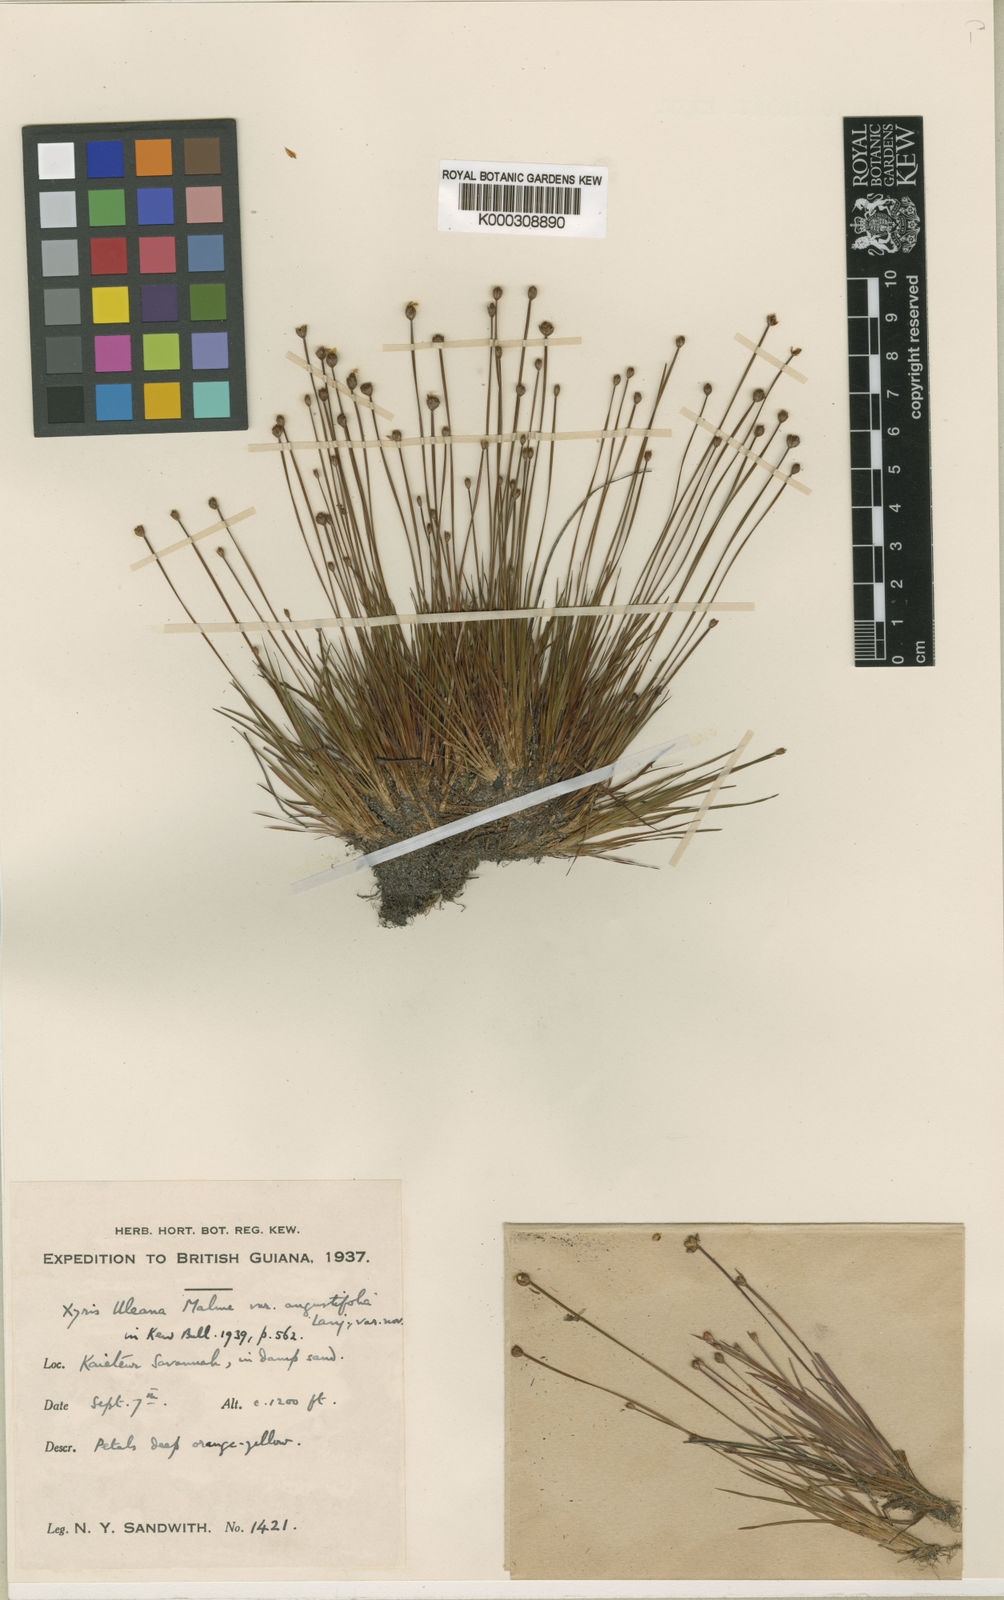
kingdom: Plantae
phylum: Tracheophyta
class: Liliopsida
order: Poales
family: Xyridaceae
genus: Xyris
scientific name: Xyris uleana
